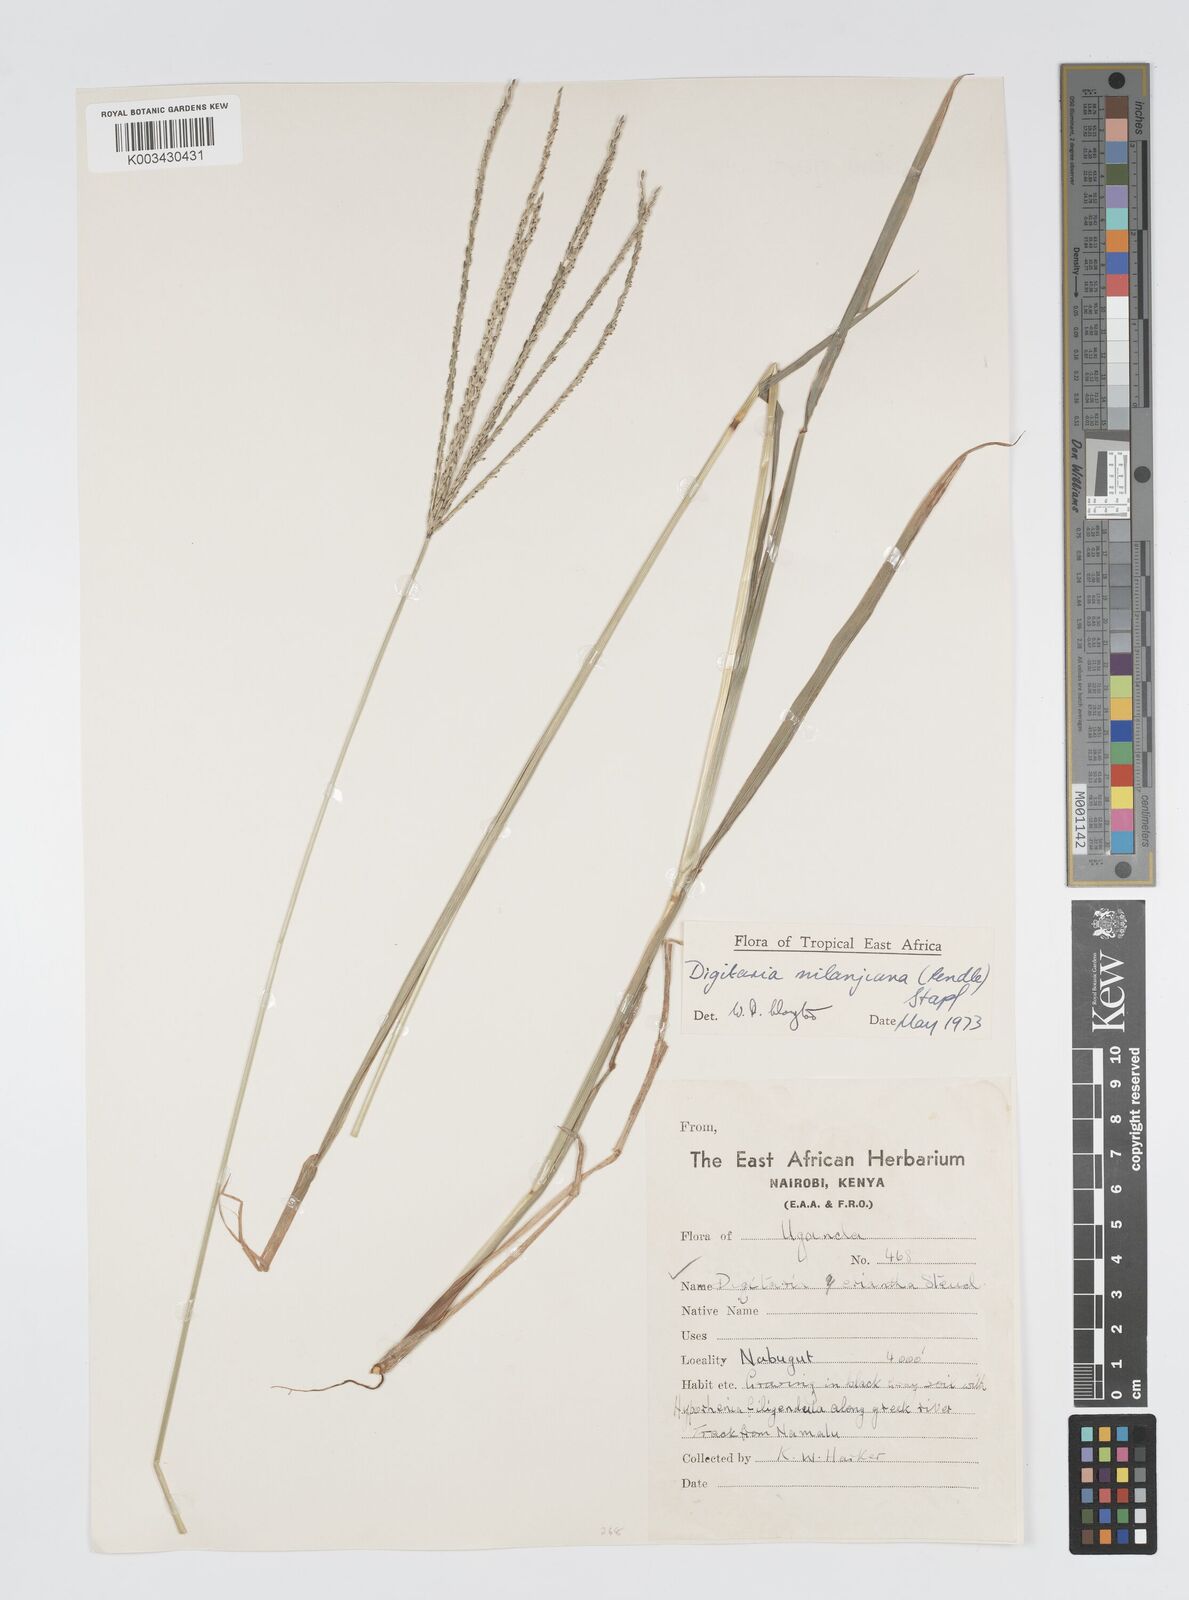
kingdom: Plantae
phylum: Tracheophyta
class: Liliopsida
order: Poales
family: Poaceae
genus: Digitaria
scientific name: Digitaria milanjiana
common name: Madagascar crabgrass
